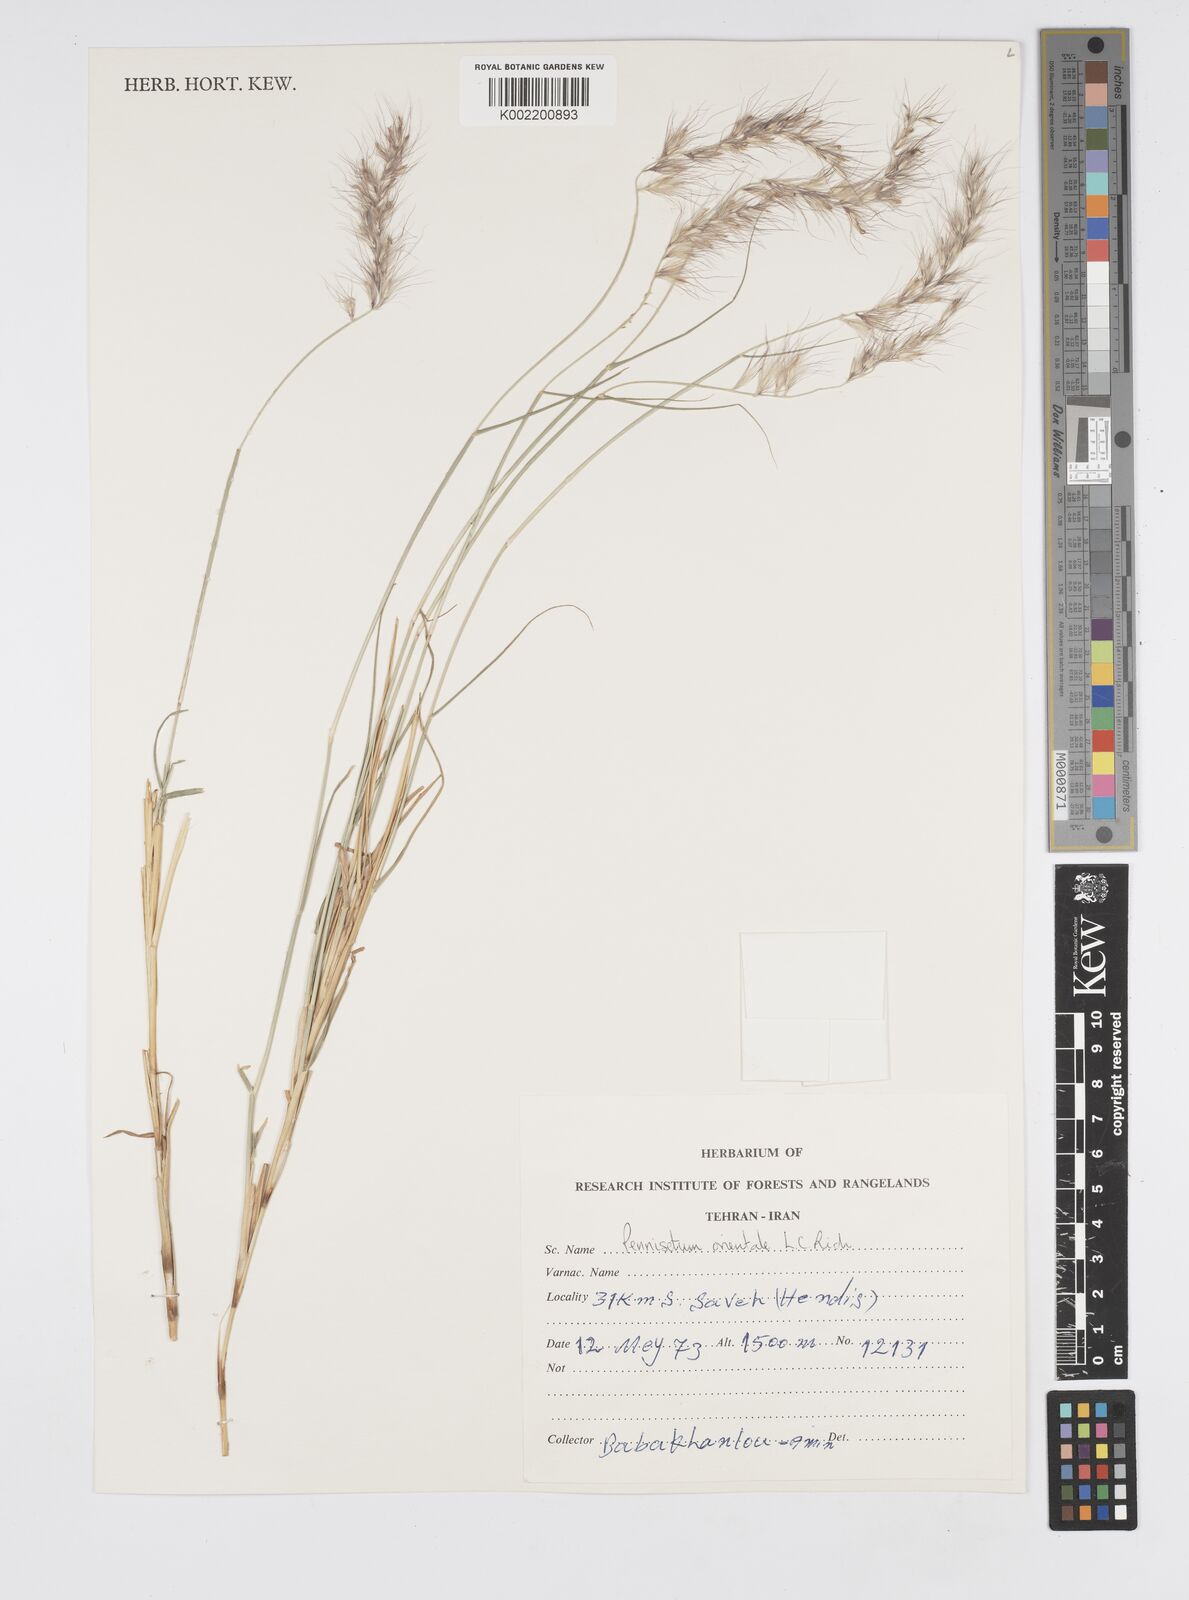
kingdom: Plantae
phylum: Tracheophyta
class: Liliopsida
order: Poales
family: Poaceae
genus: Cenchrus
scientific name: Cenchrus orientalis
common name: Oriental fountain grass
